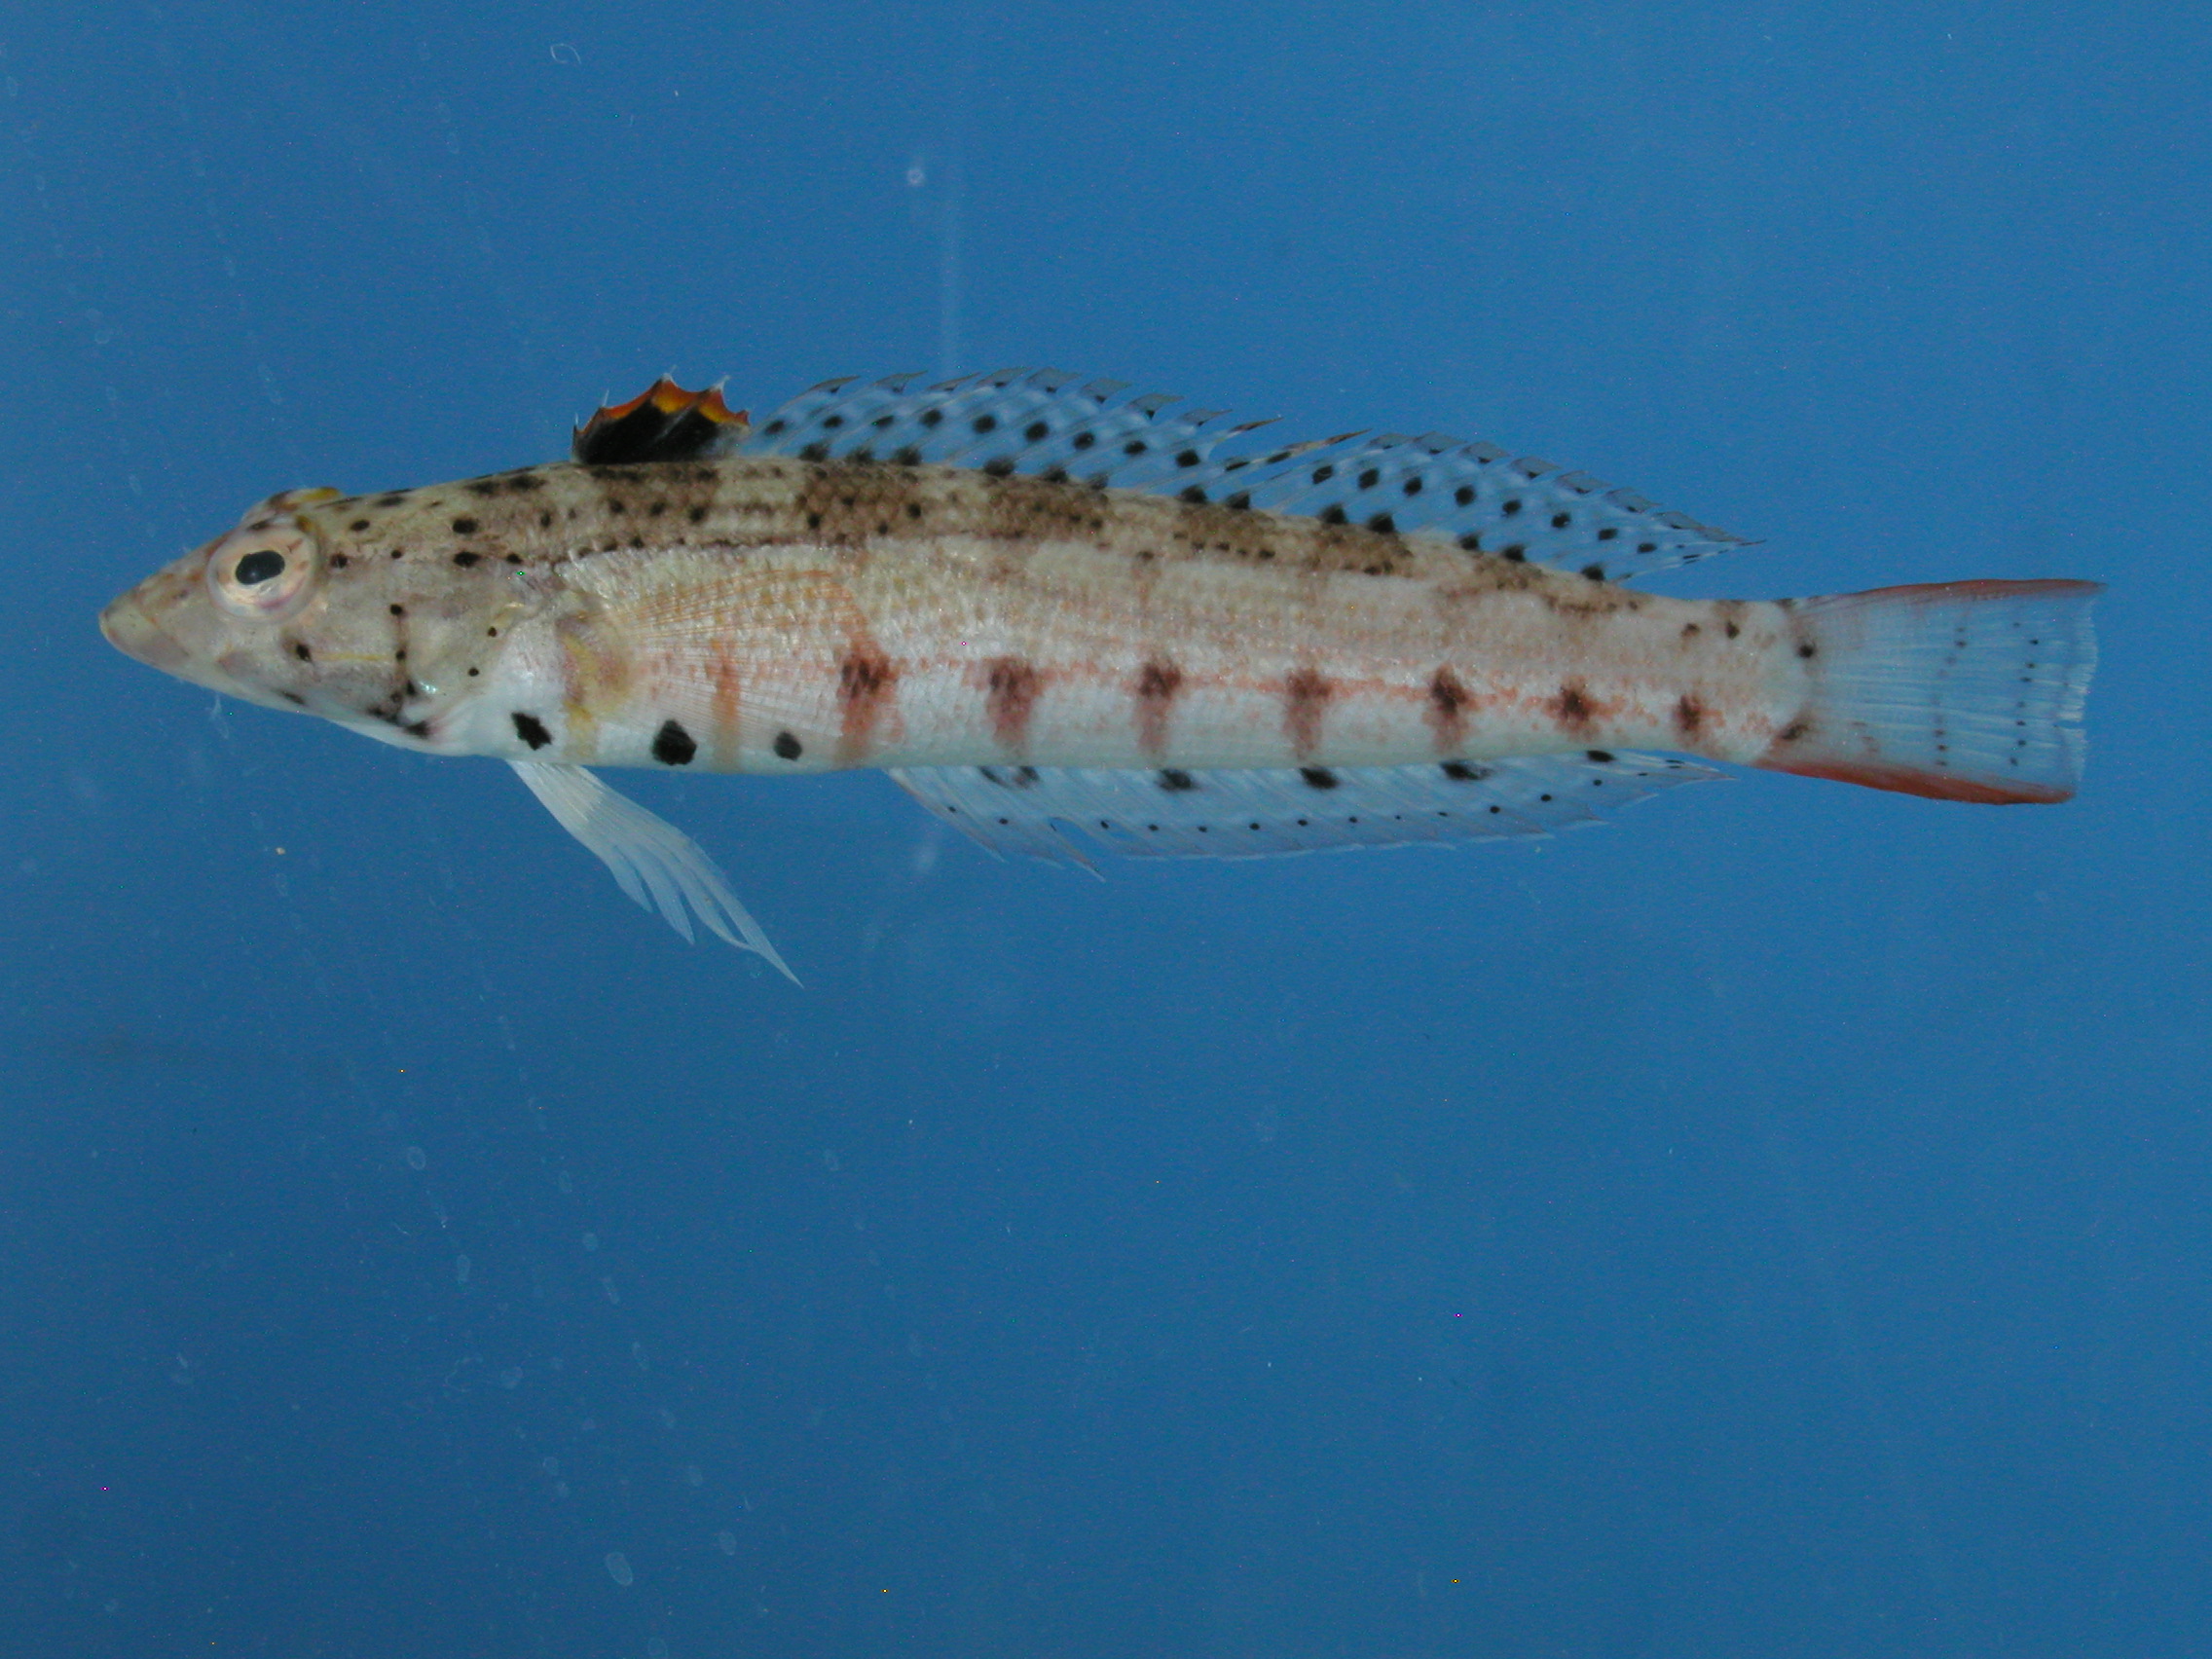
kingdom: Animalia
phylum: Chordata
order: Perciformes
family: Pinguipedidae
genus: Parapercis
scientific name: Parapercis punctulata
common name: Spotted sandperch
